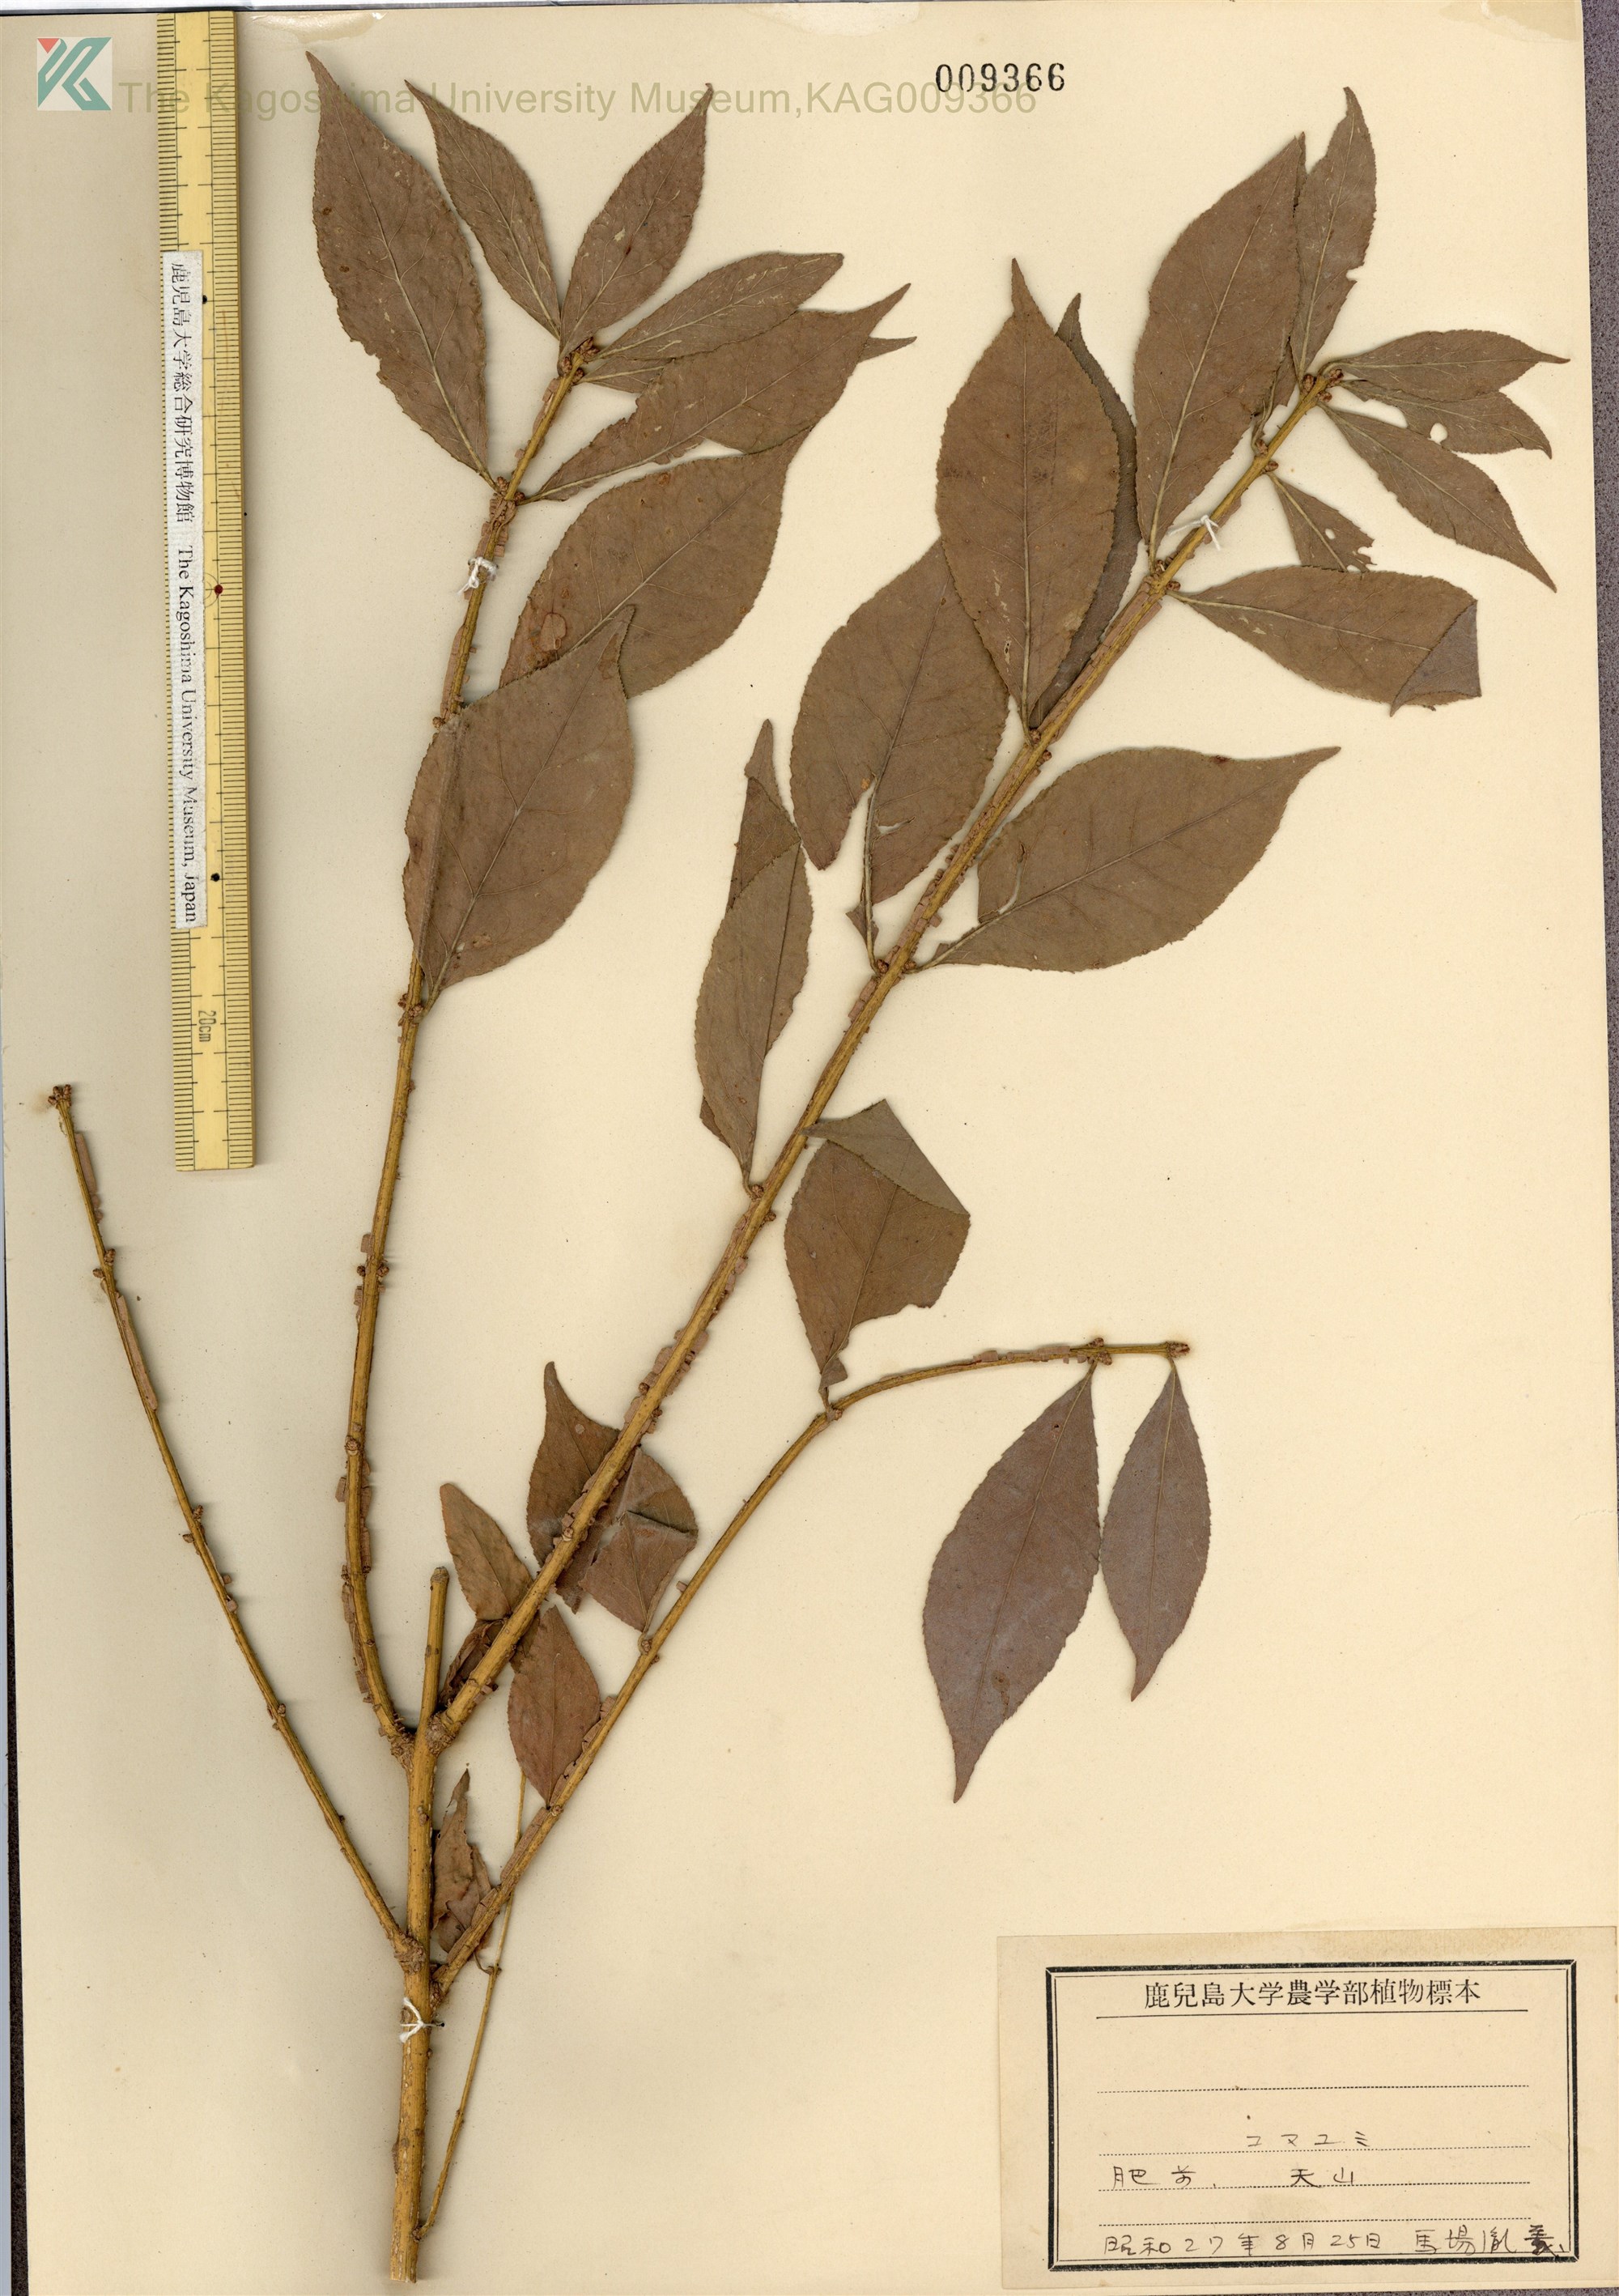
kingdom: Plantae
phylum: Tracheophyta
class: Magnoliopsida
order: Celastrales
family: Celastraceae
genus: Euonymus
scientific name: Euonymus alatus
